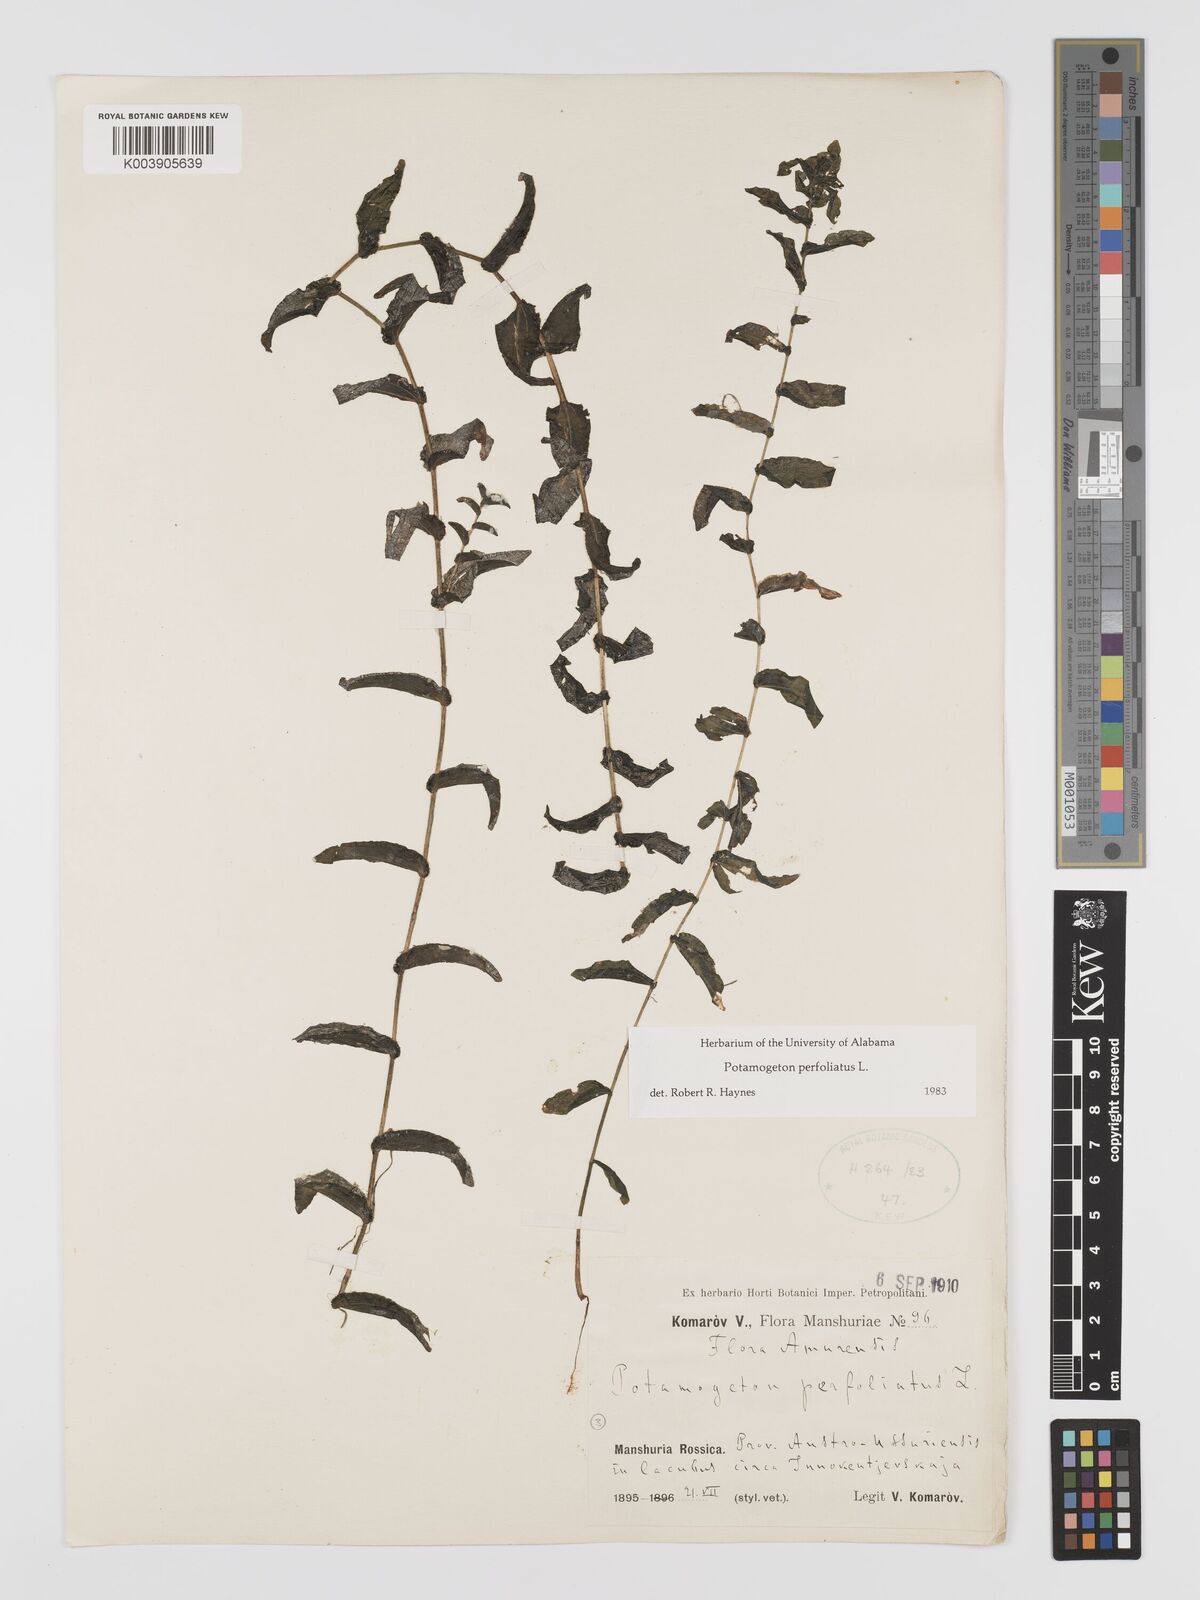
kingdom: Plantae
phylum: Tracheophyta
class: Liliopsida
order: Alismatales
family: Potamogetonaceae
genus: Potamogeton
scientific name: Potamogeton perfoliatus
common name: Perfoliate pondweed
